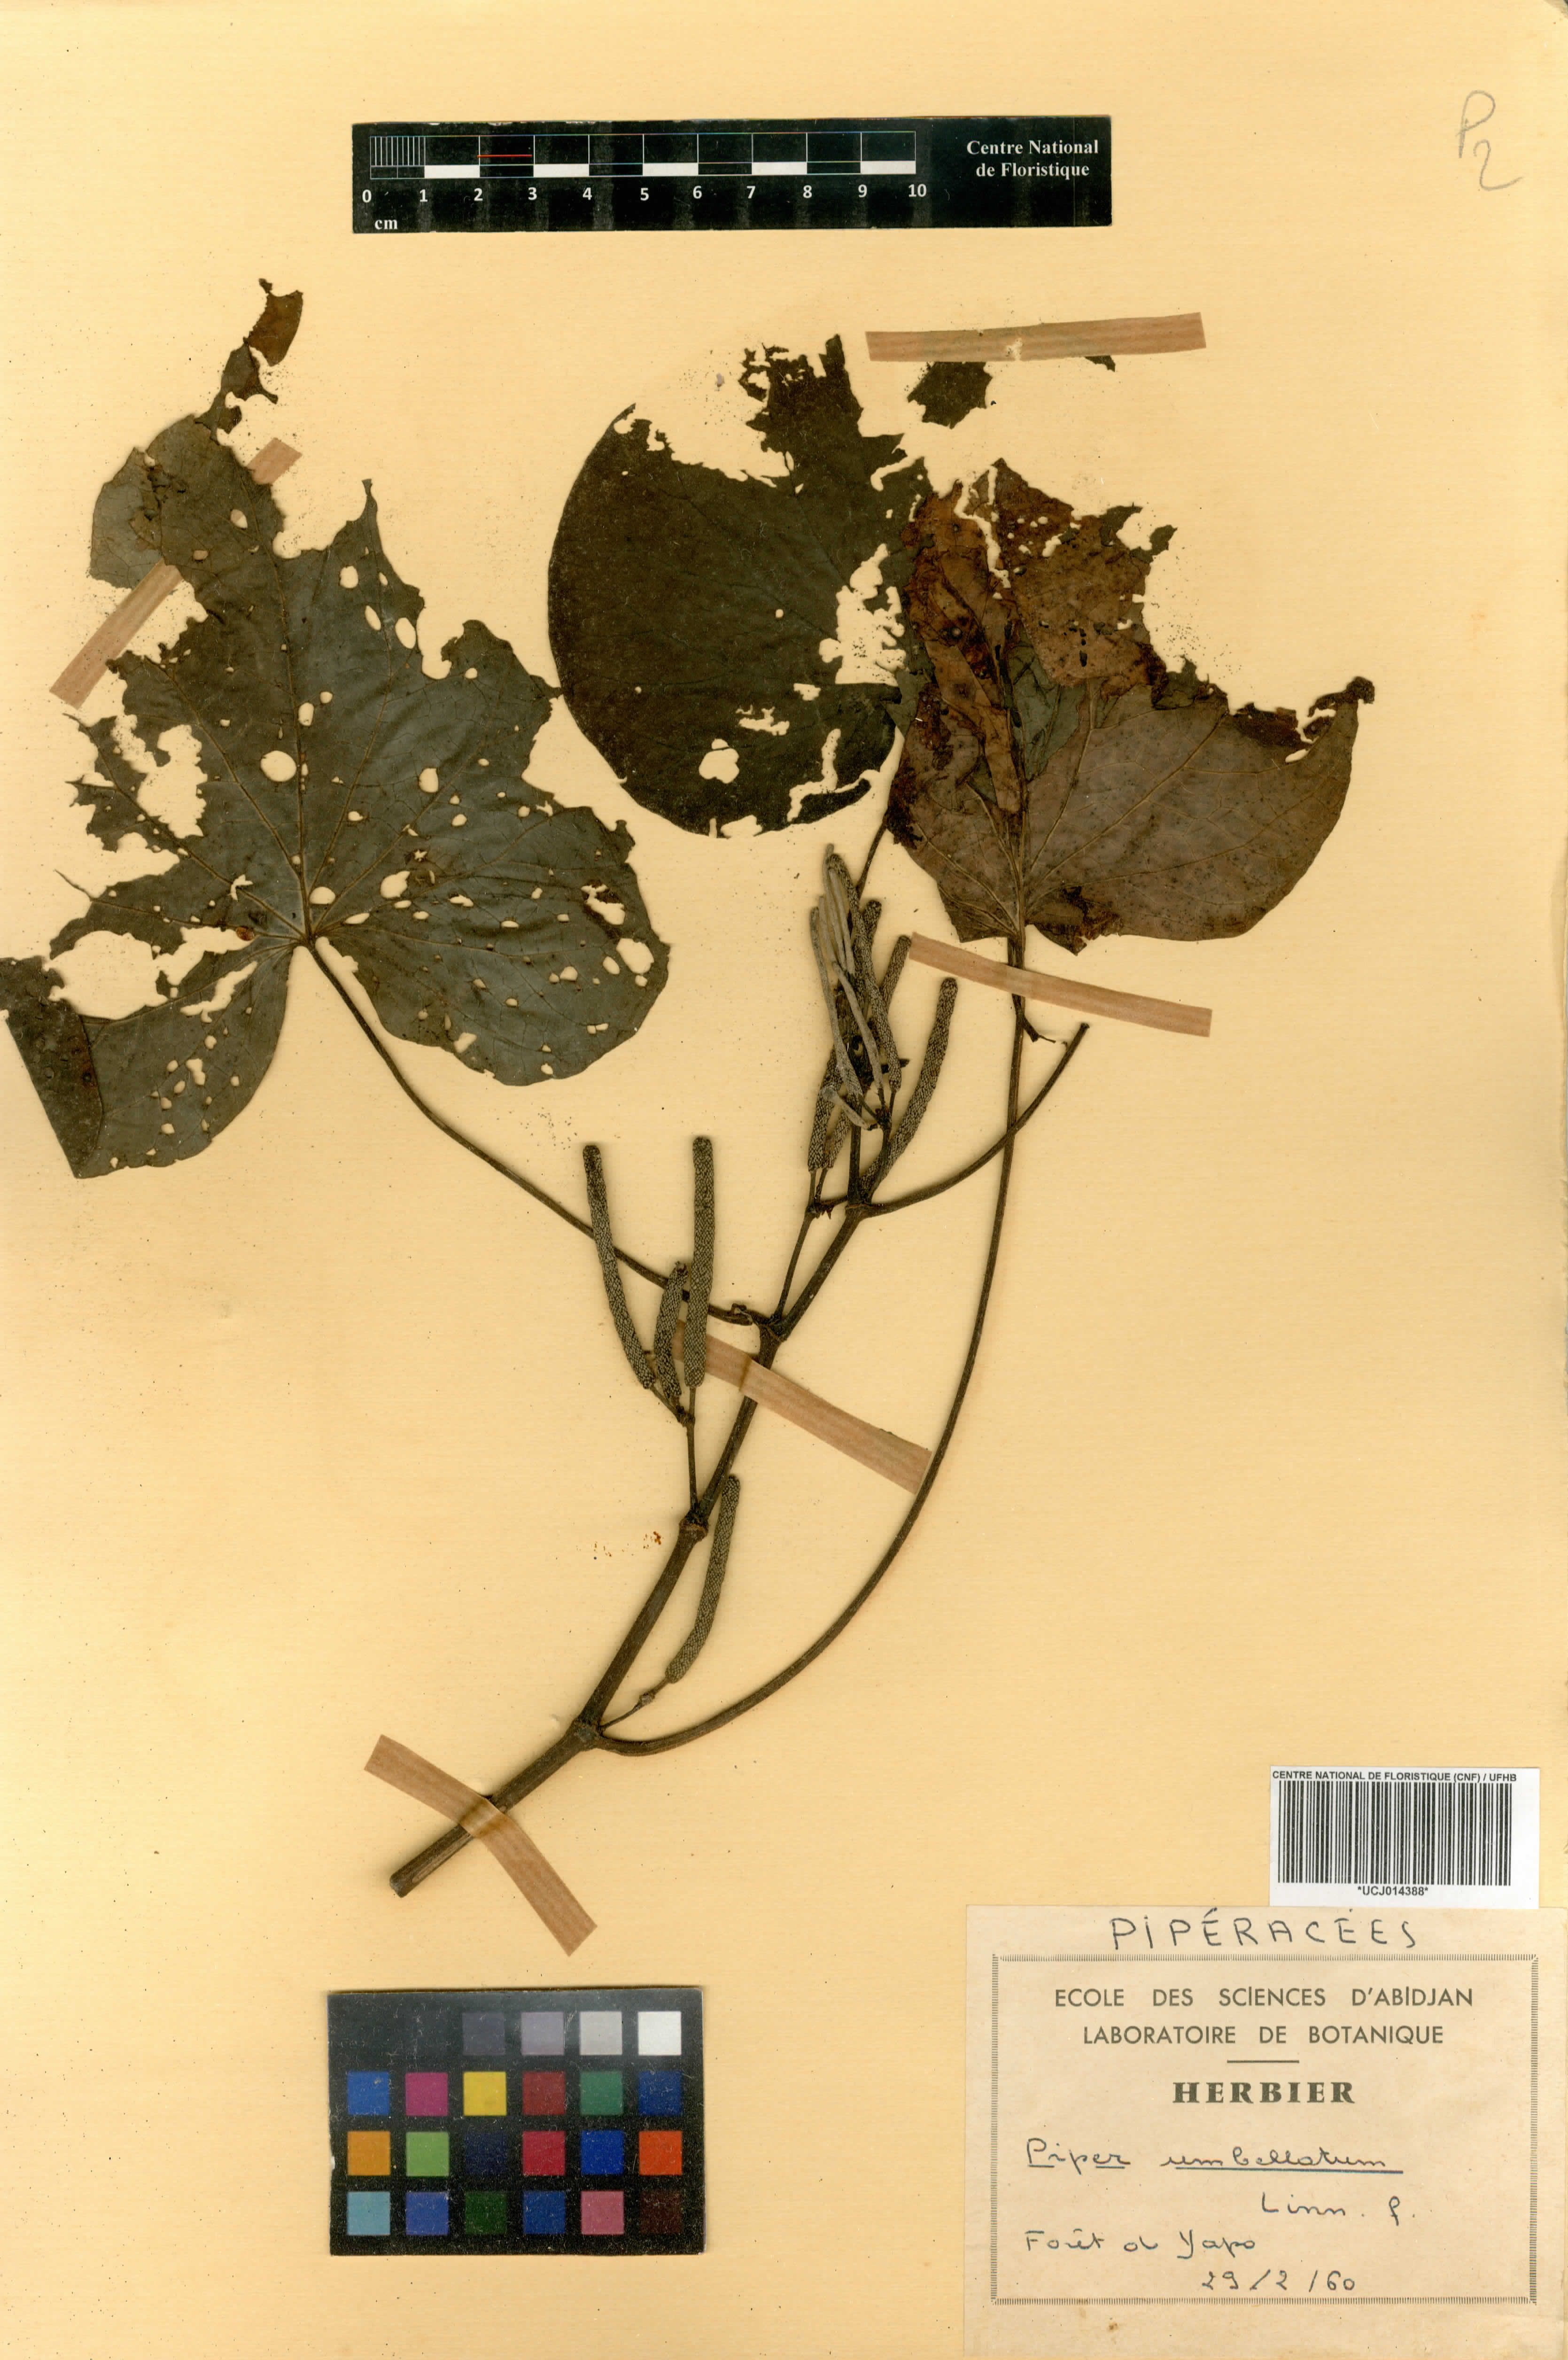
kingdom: Plantae
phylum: Tracheophyta
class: Magnoliopsida
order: Piperales
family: Piperaceae
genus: Piper
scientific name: Piper umbellatum
